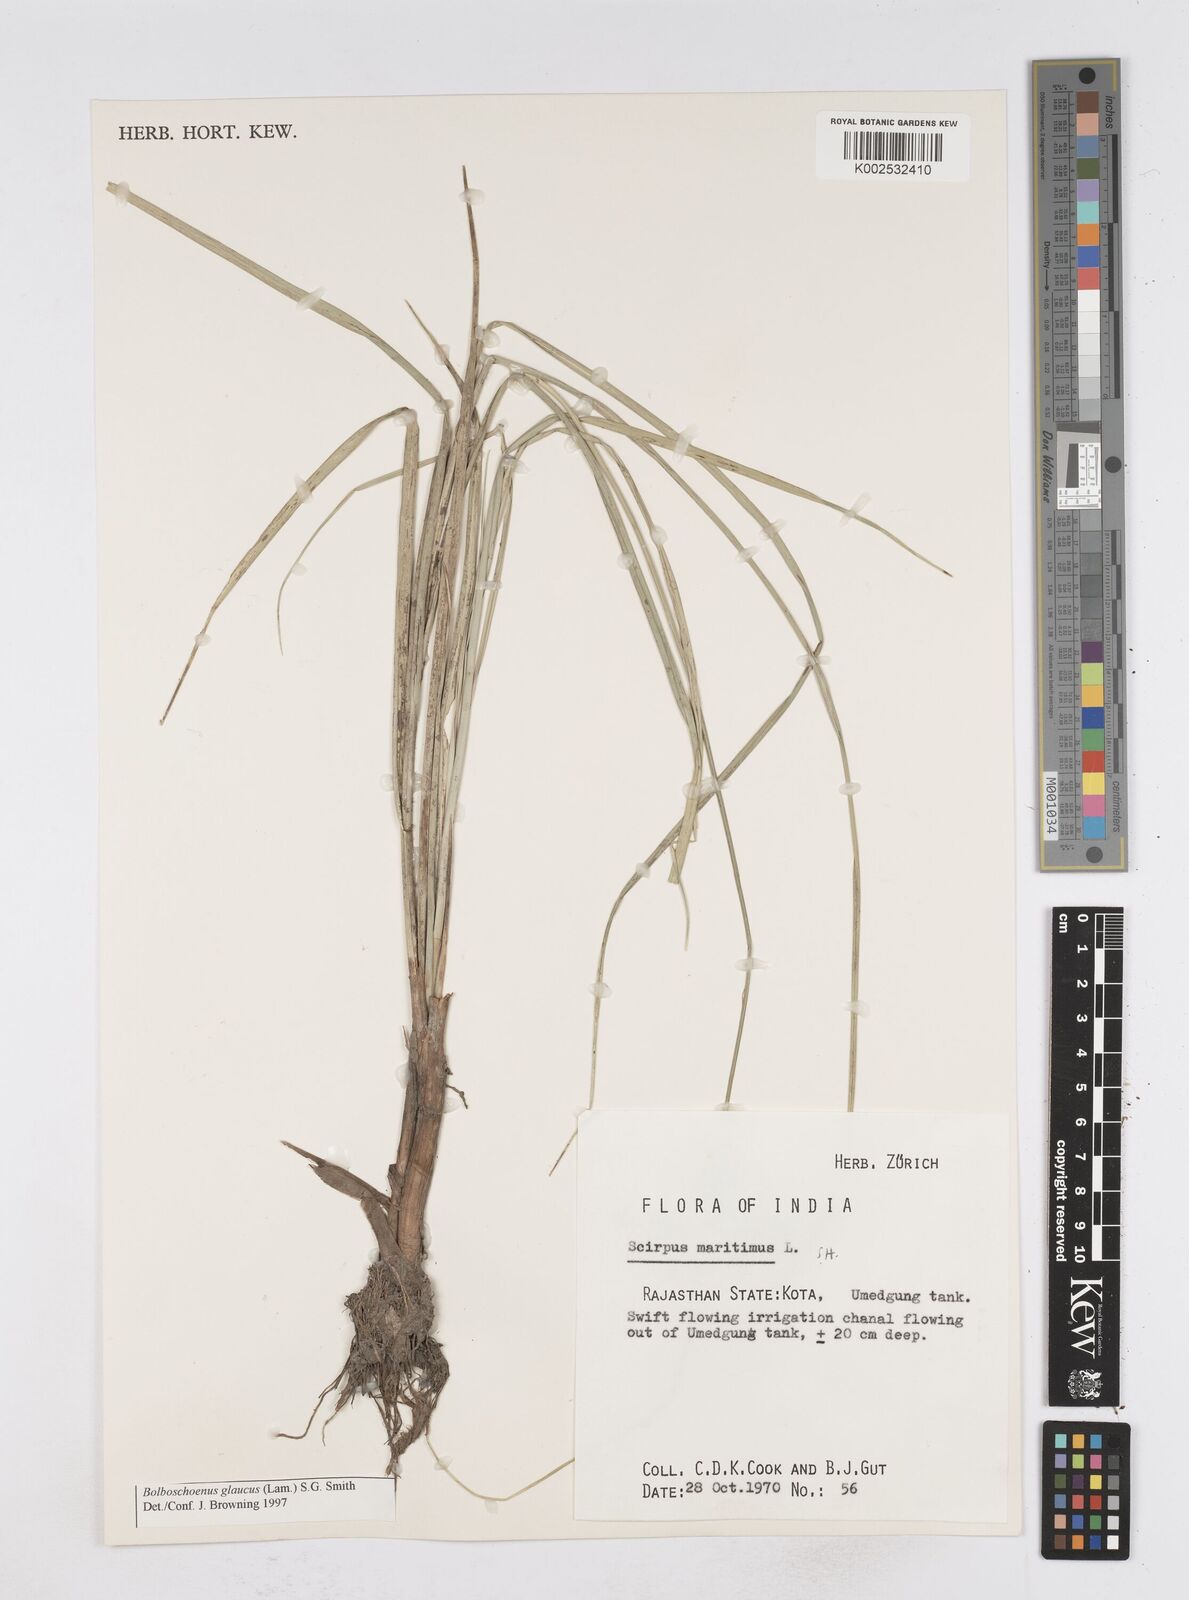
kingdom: Plantae
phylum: Tracheophyta
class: Liliopsida
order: Poales
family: Cyperaceae
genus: Bolboschoenus
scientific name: Bolboschoenus maritimus
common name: Sea club-rush
